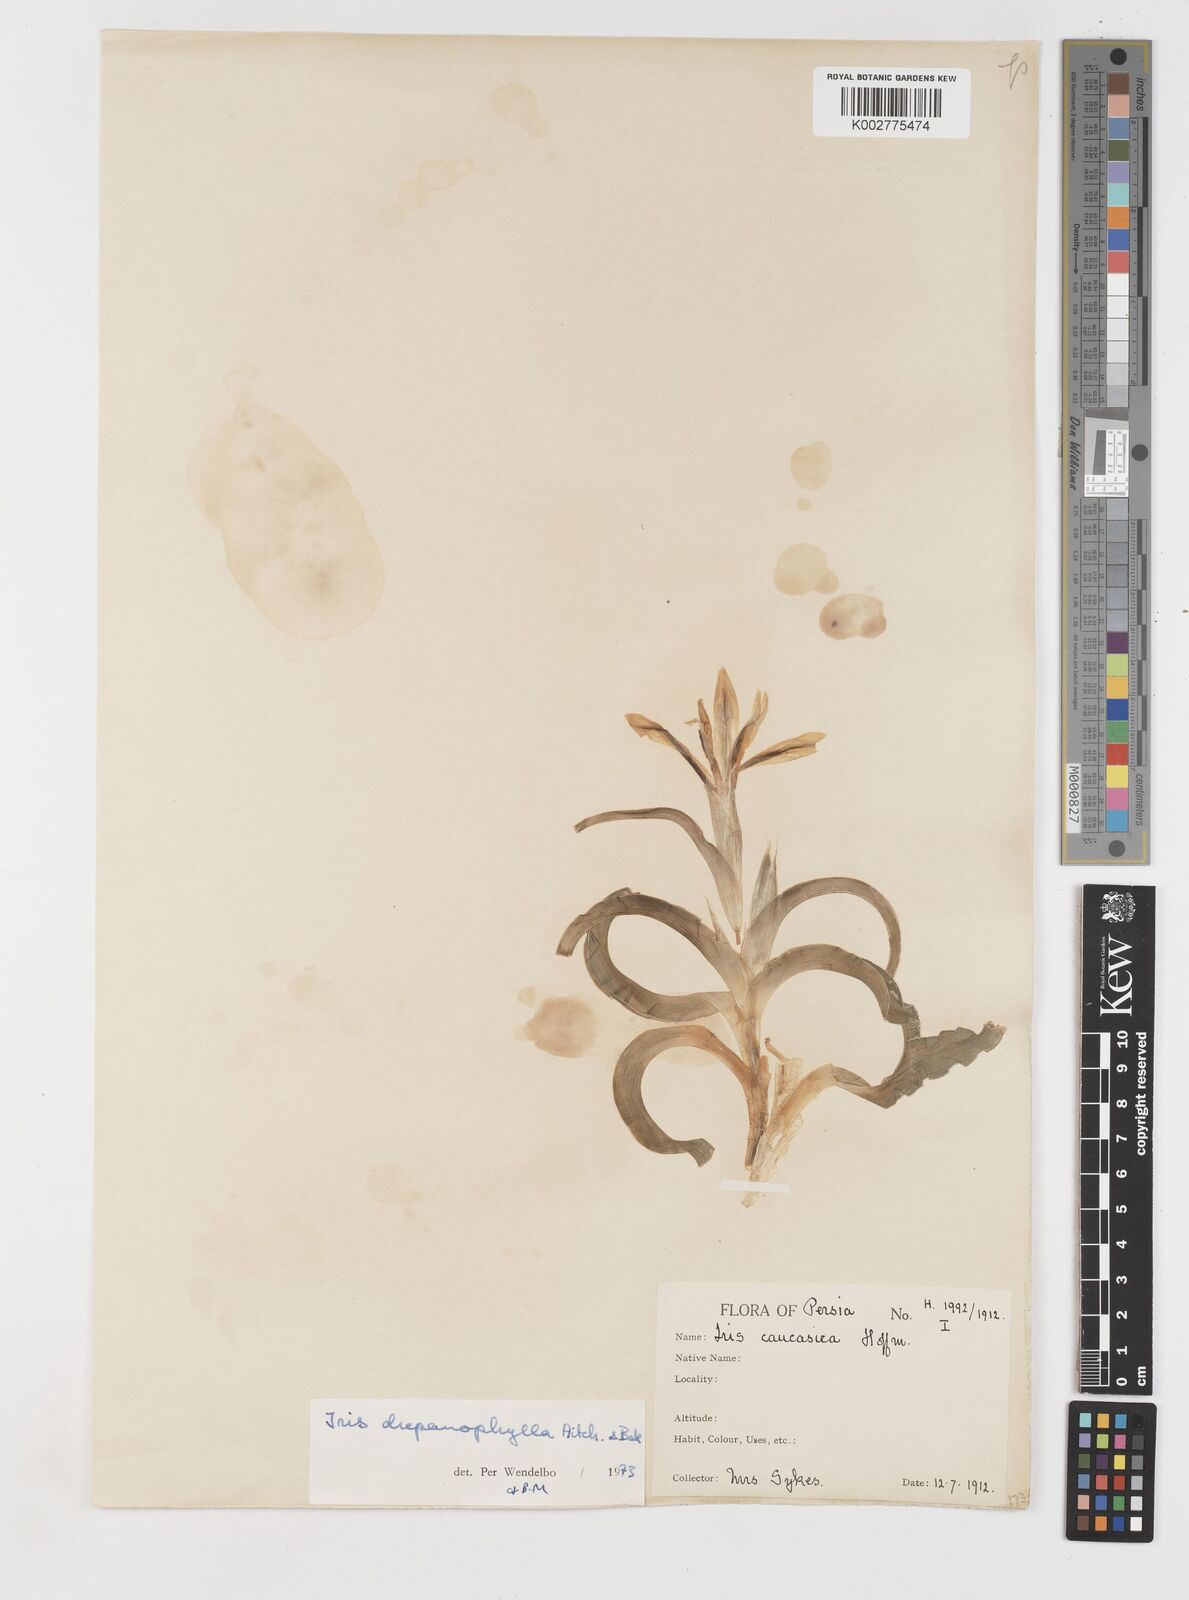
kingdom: Plantae
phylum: Tracheophyta
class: Liliopsida
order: Asparagales
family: Iridaceae
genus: Iris
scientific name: Iris drepanophylla
